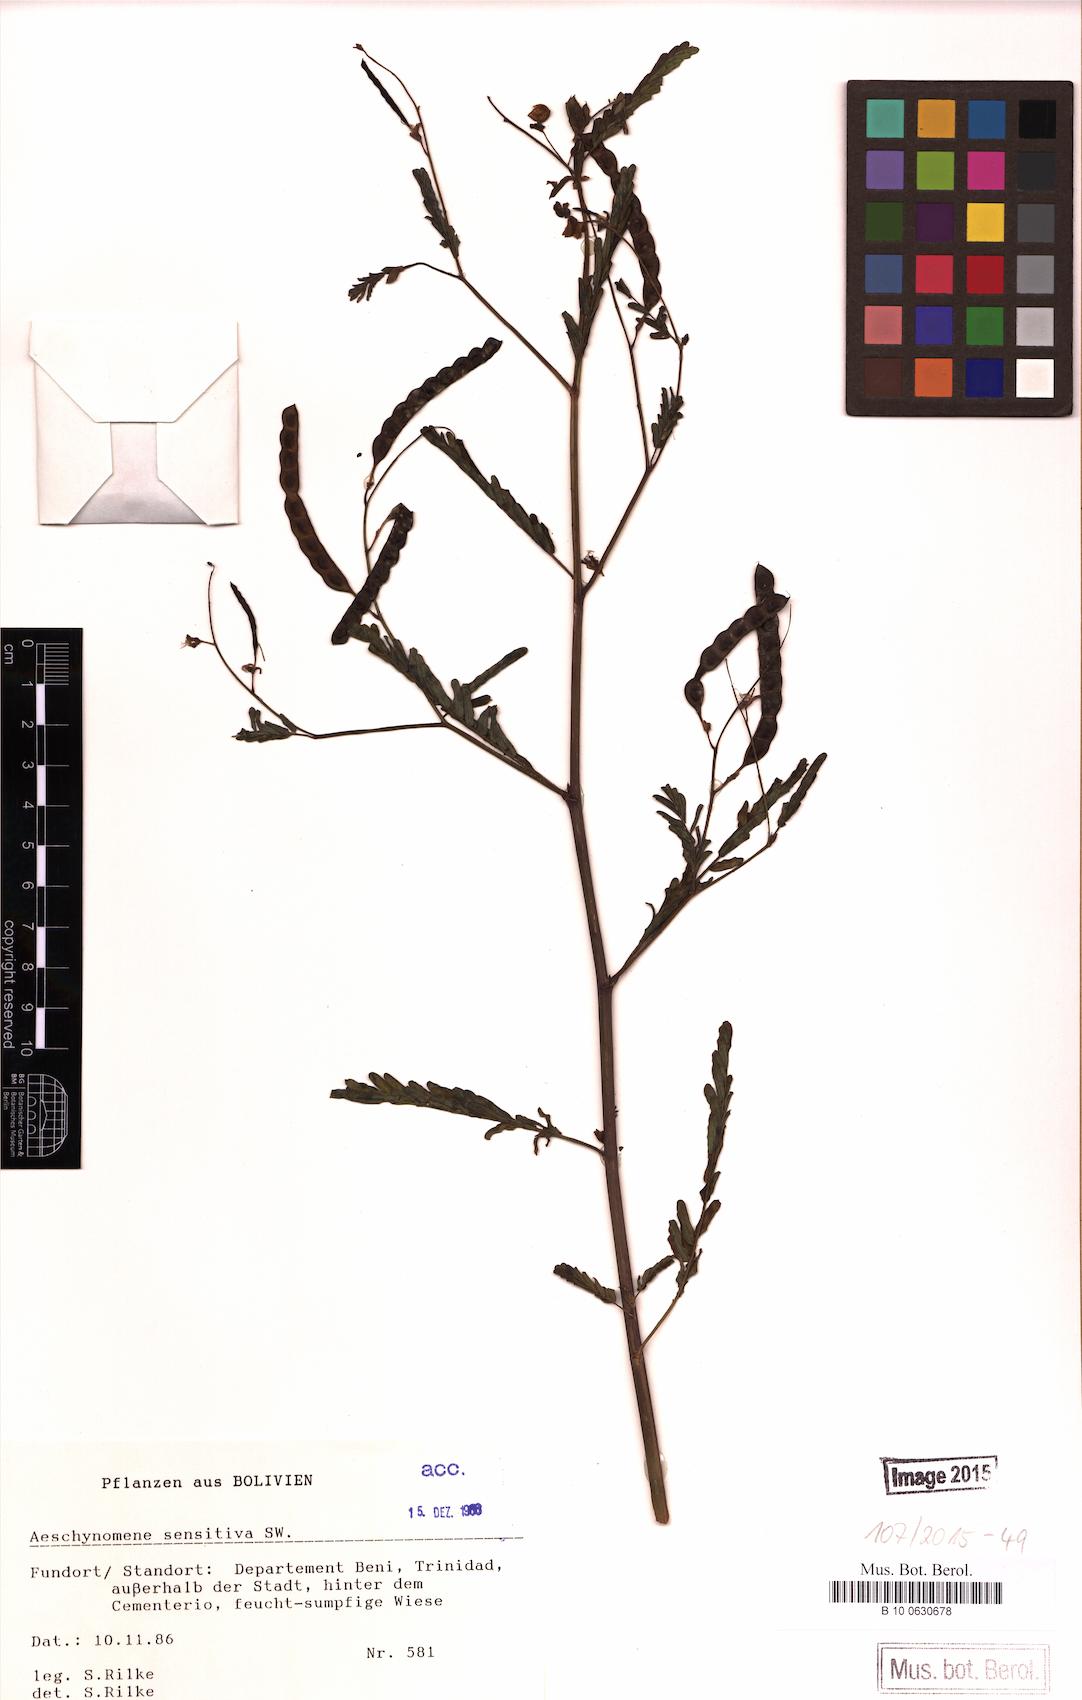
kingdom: Plantae
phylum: Tracheophyta
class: Magnoliopsida
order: Fabales
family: Fabaceae
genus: Aeschynomene
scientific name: Aeschynomene sensitiva
